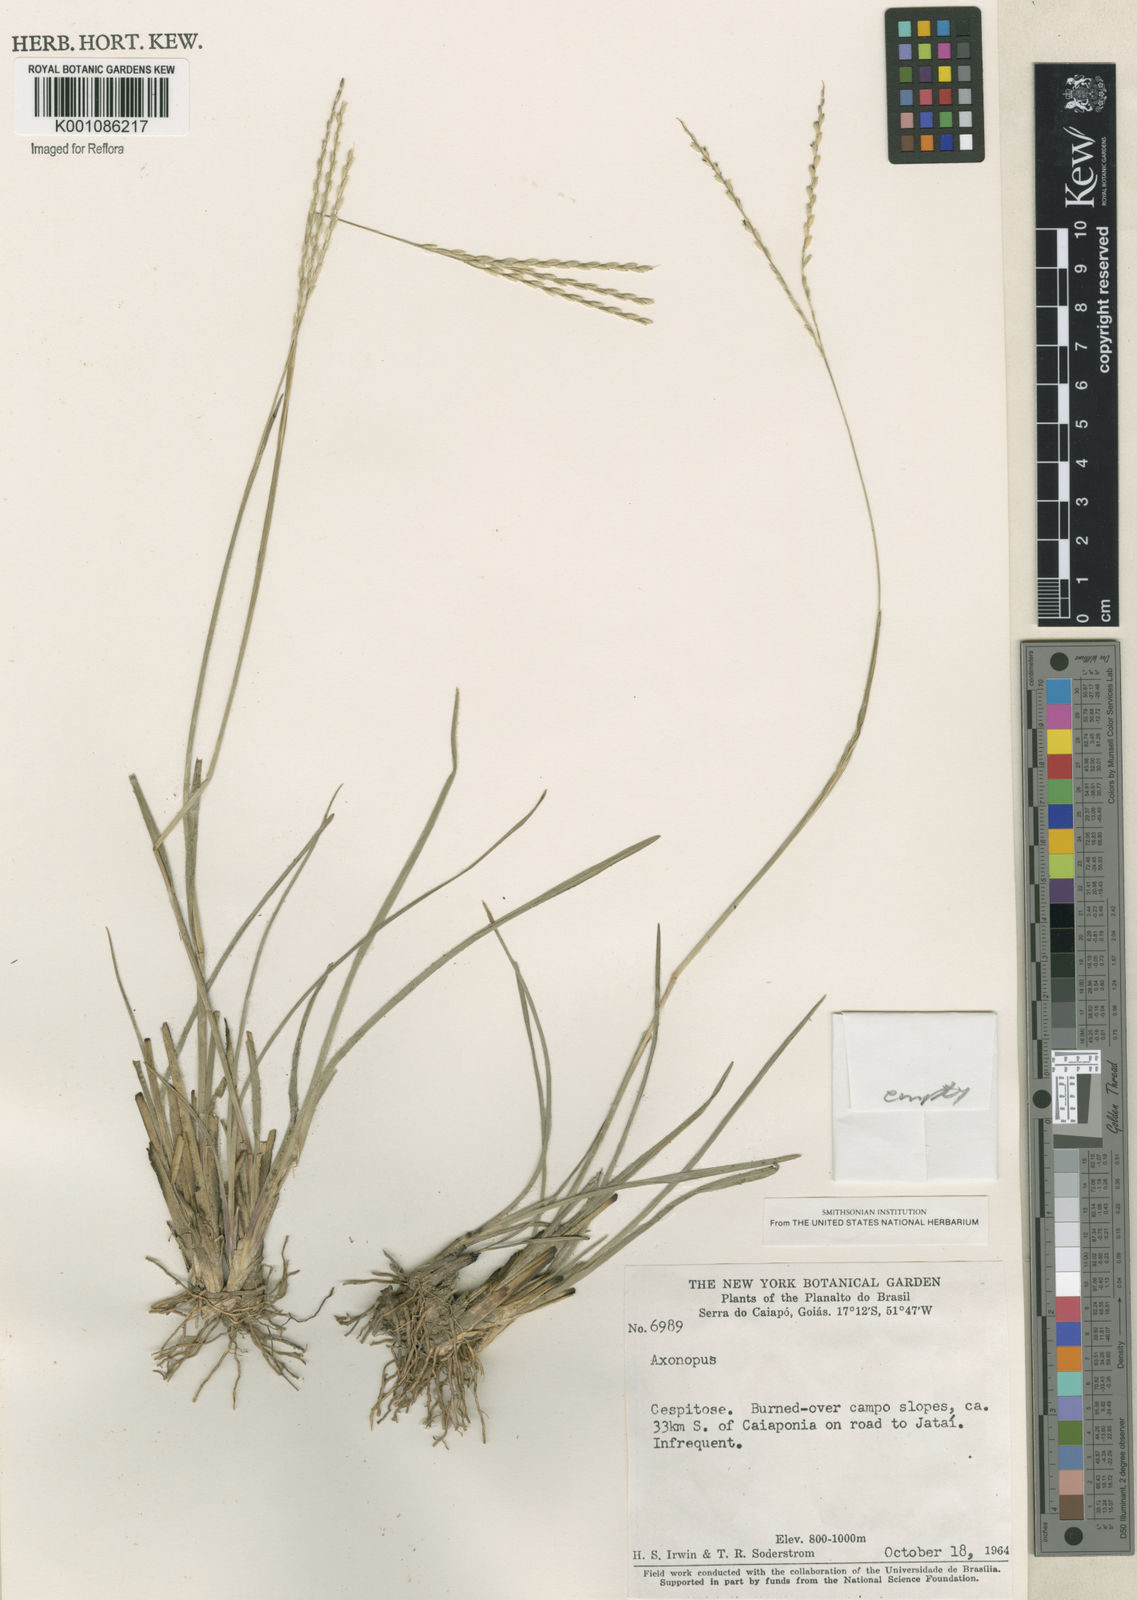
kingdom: Plantae
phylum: Tracheophyta
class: Liliopsida
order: Poales
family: Poaceae
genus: Axonopus
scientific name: Axonopus
